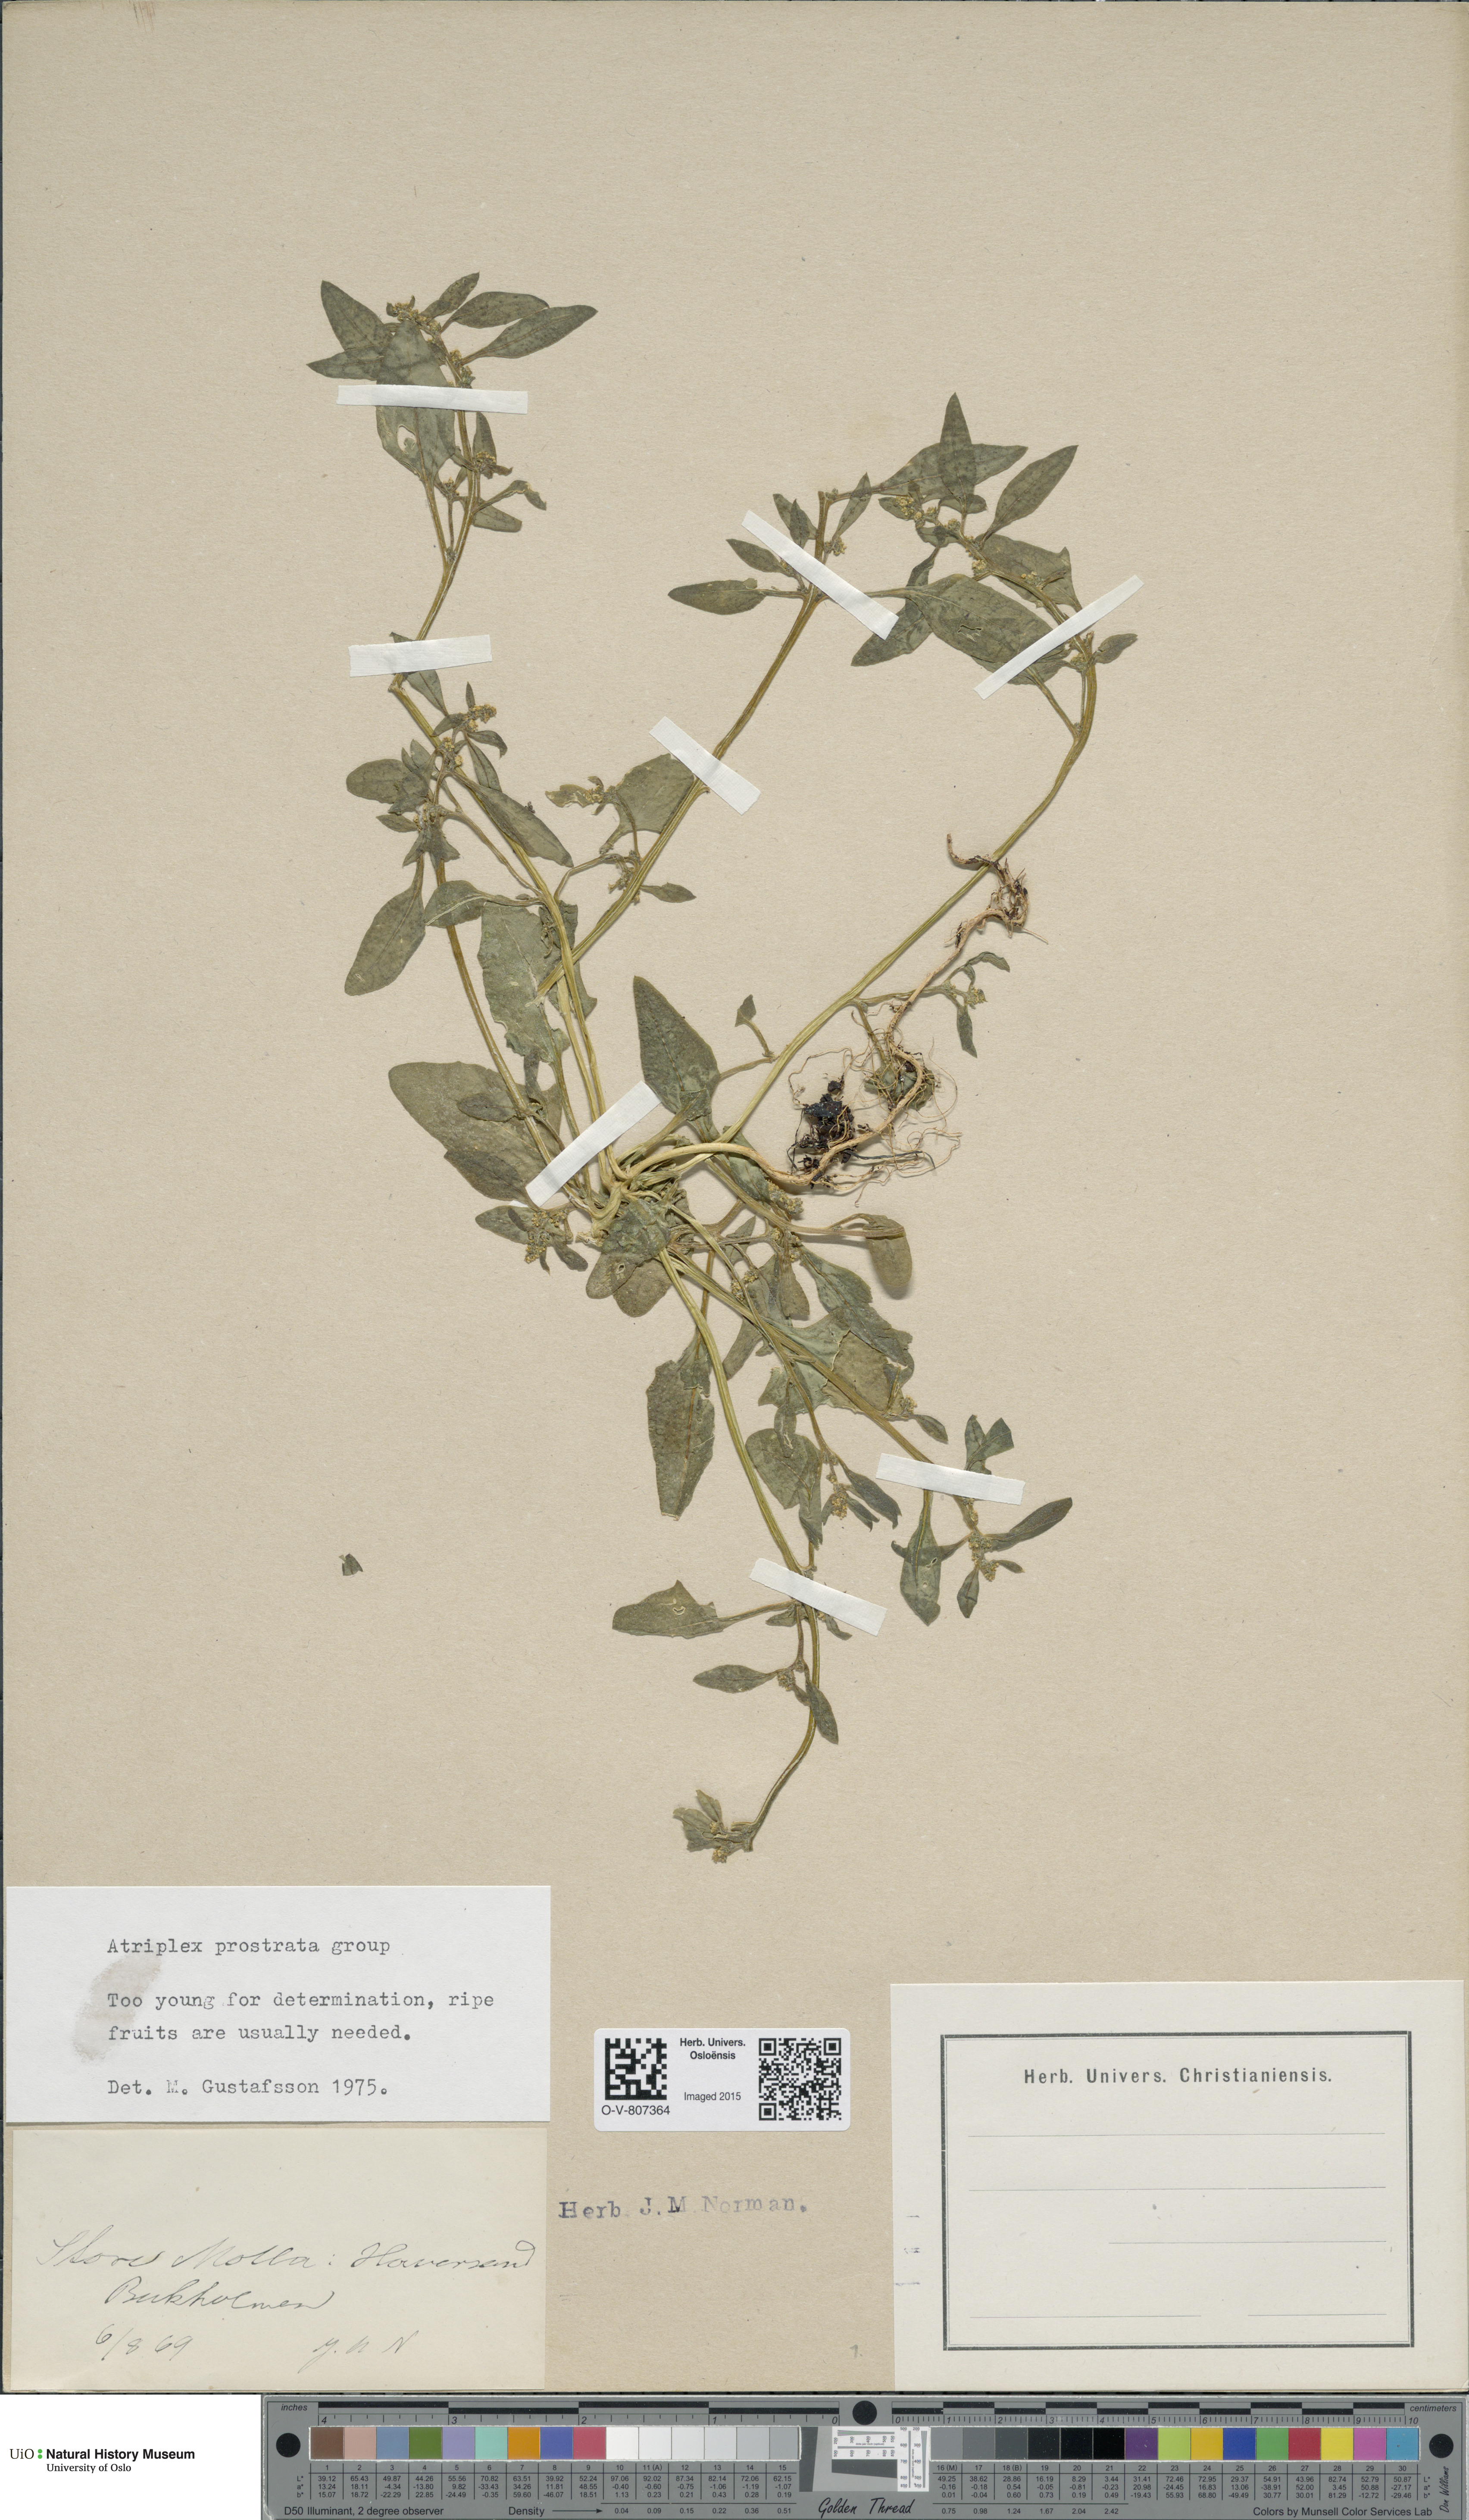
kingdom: Plantae
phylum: Tracheophyta
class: Magnoliopsida
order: Caryophyllales
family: Amaranthaceae
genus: Atriplex
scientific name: Atriplex prostrata
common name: Spear-leaved orache
